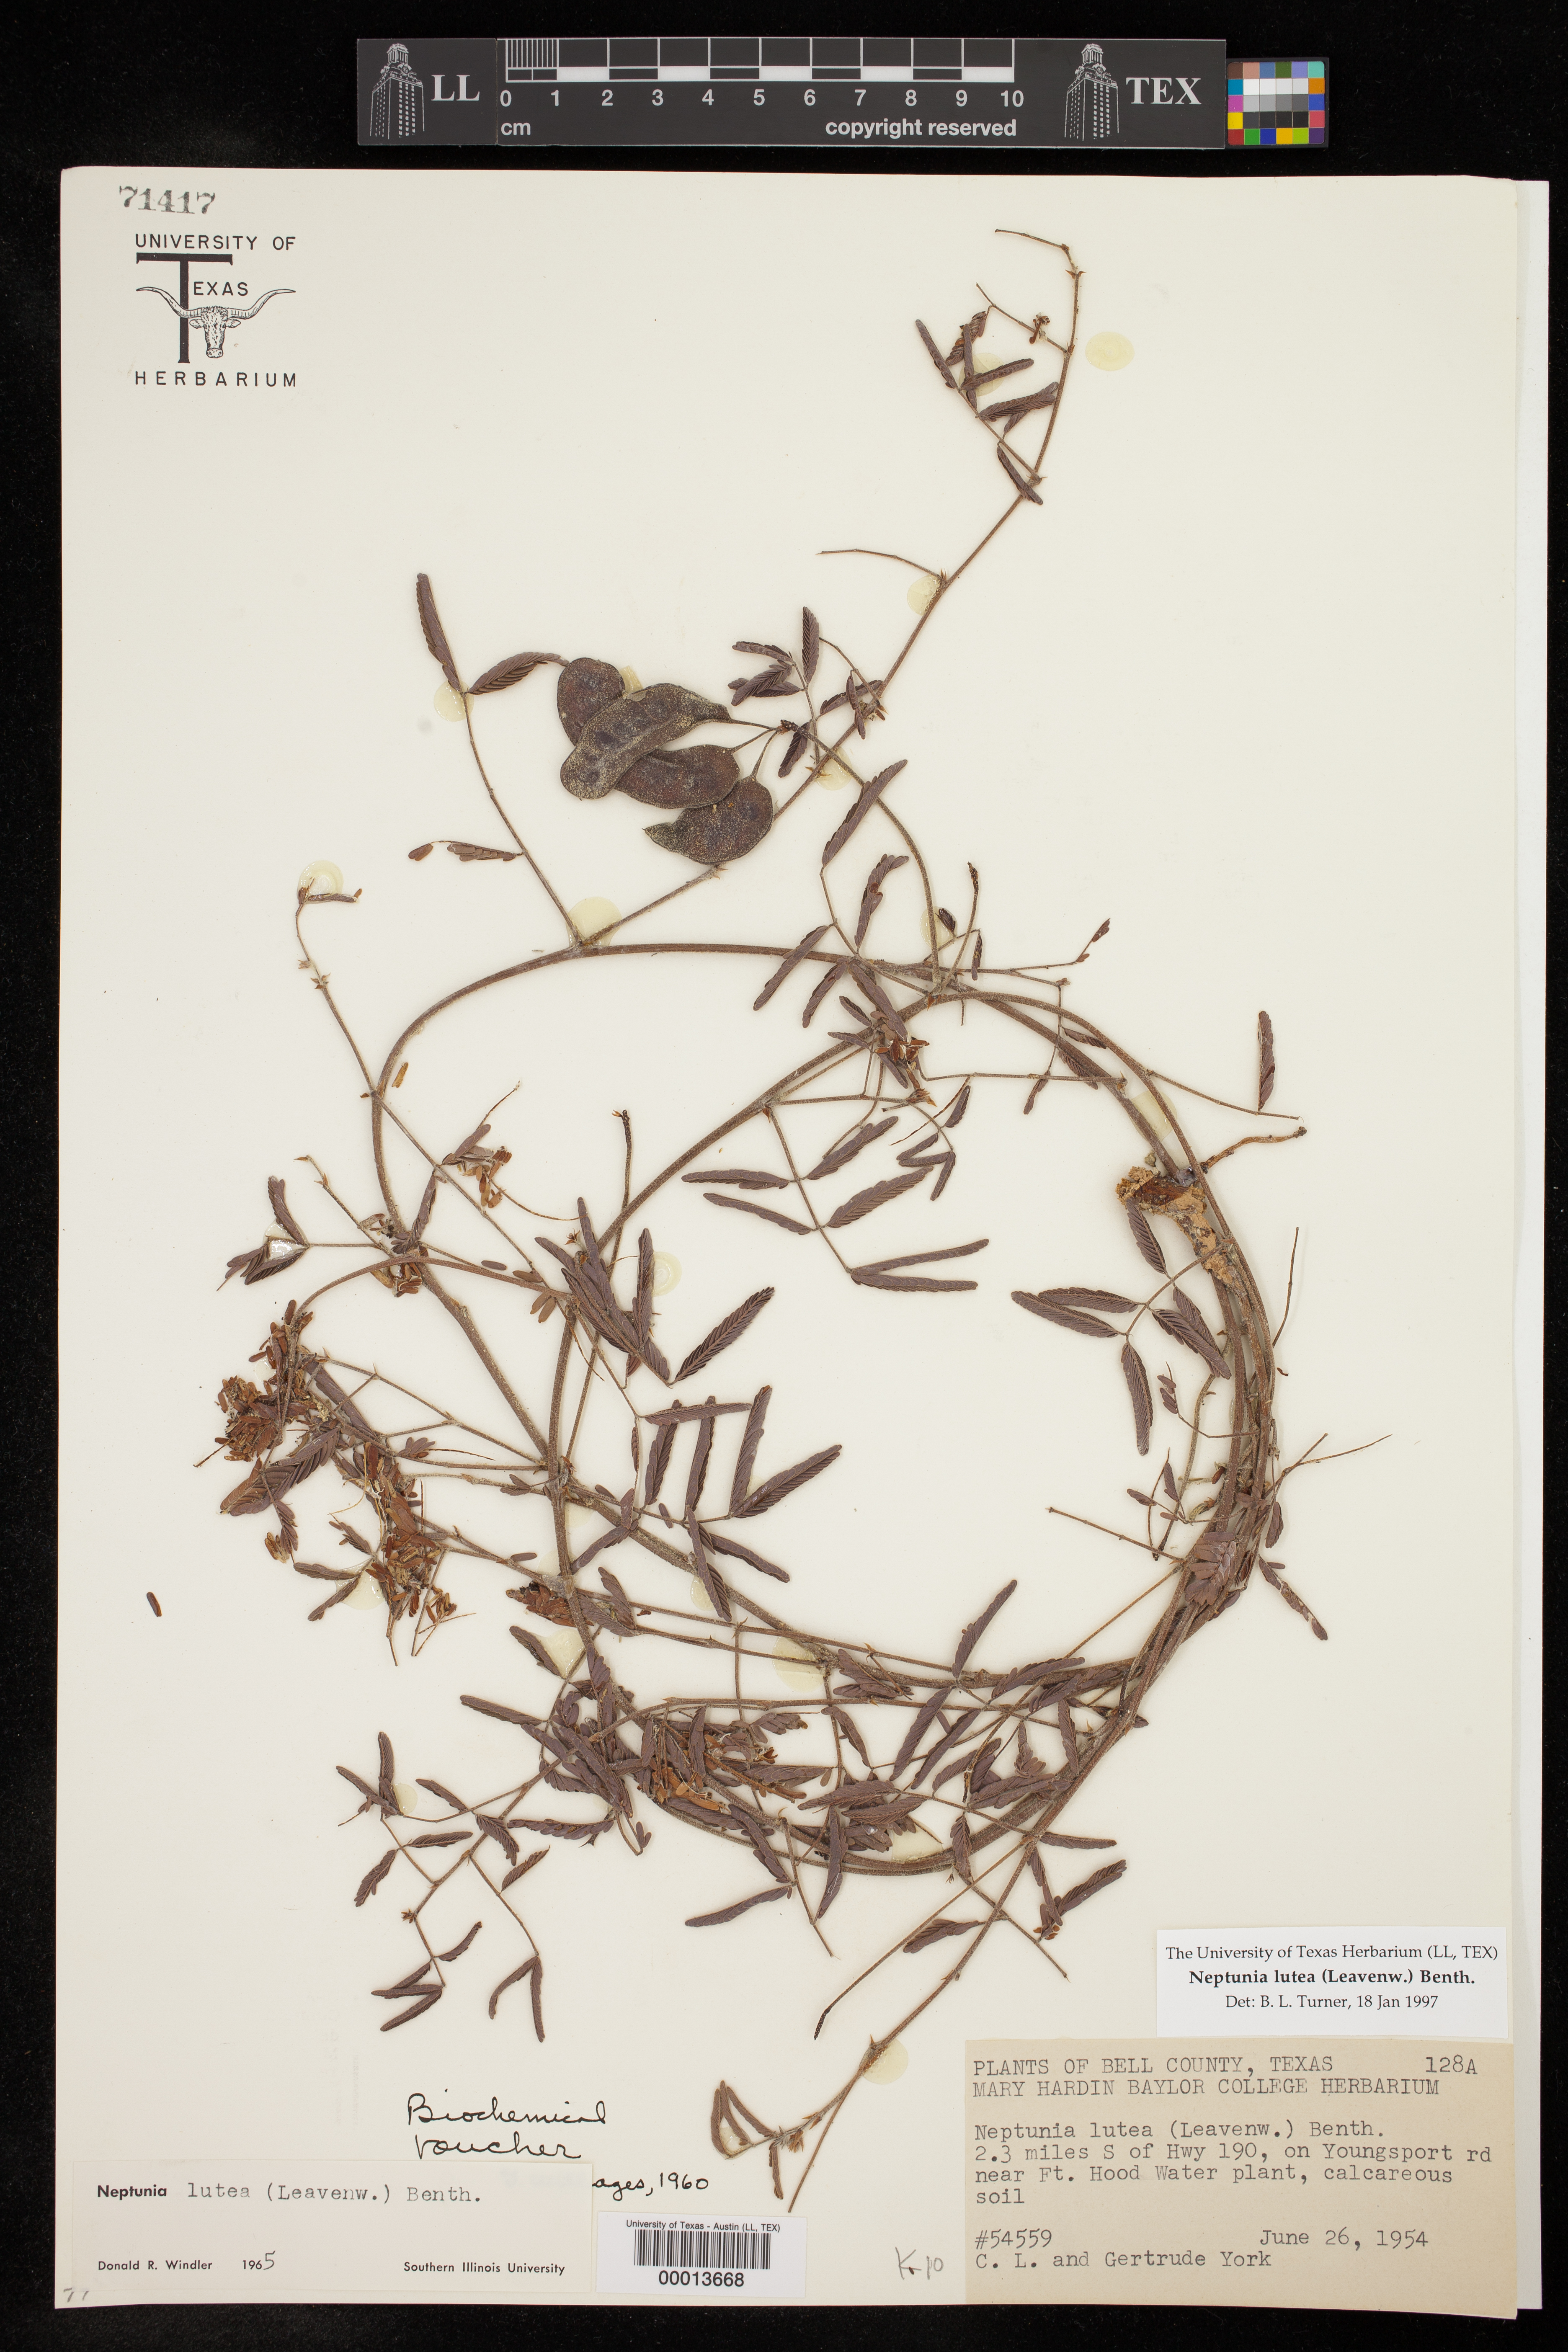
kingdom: Plantae
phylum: Tracheophyta
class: Magnoliopsida
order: Fabales
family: Fabaceae
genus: Neptunia
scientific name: Neptunia lutea
